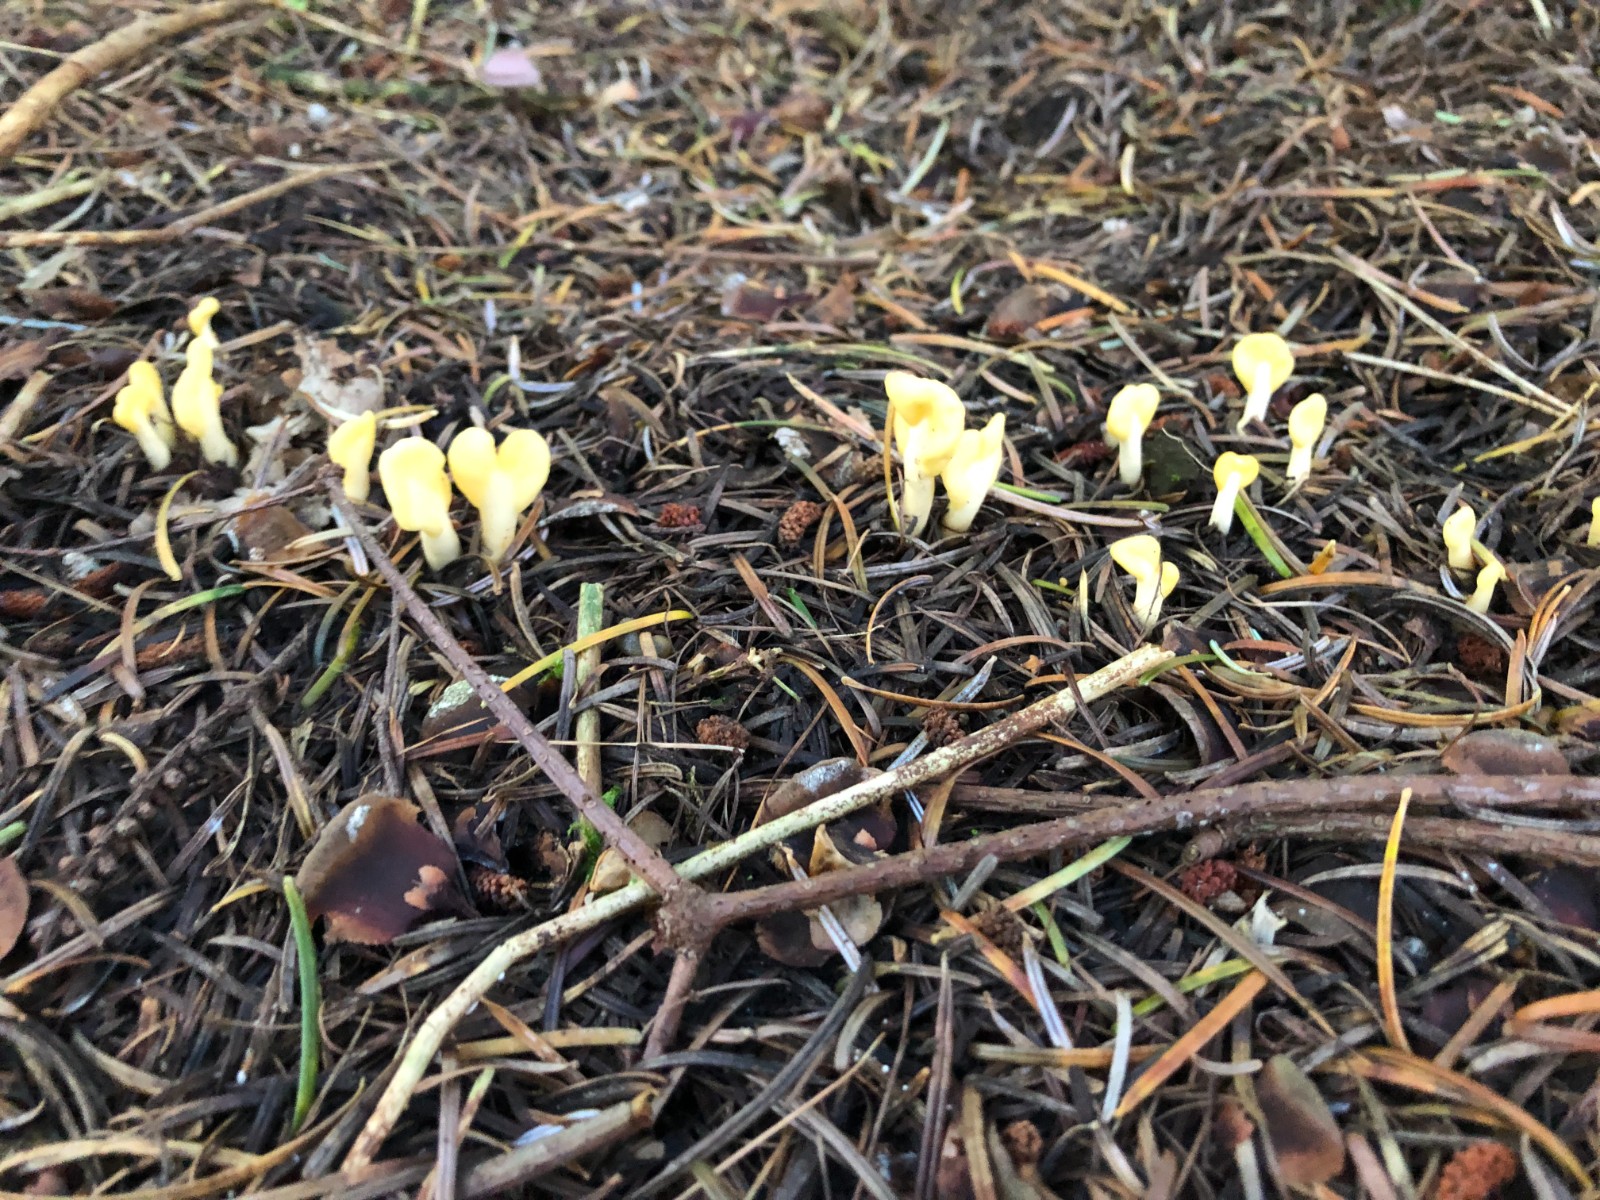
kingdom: Fungi
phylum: Ascomycota
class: Leotiomycetes
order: Rhytismatales
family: Cudoniaceae
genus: Spathularia
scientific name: Spathularia flavida
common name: gul spatelsvamp
